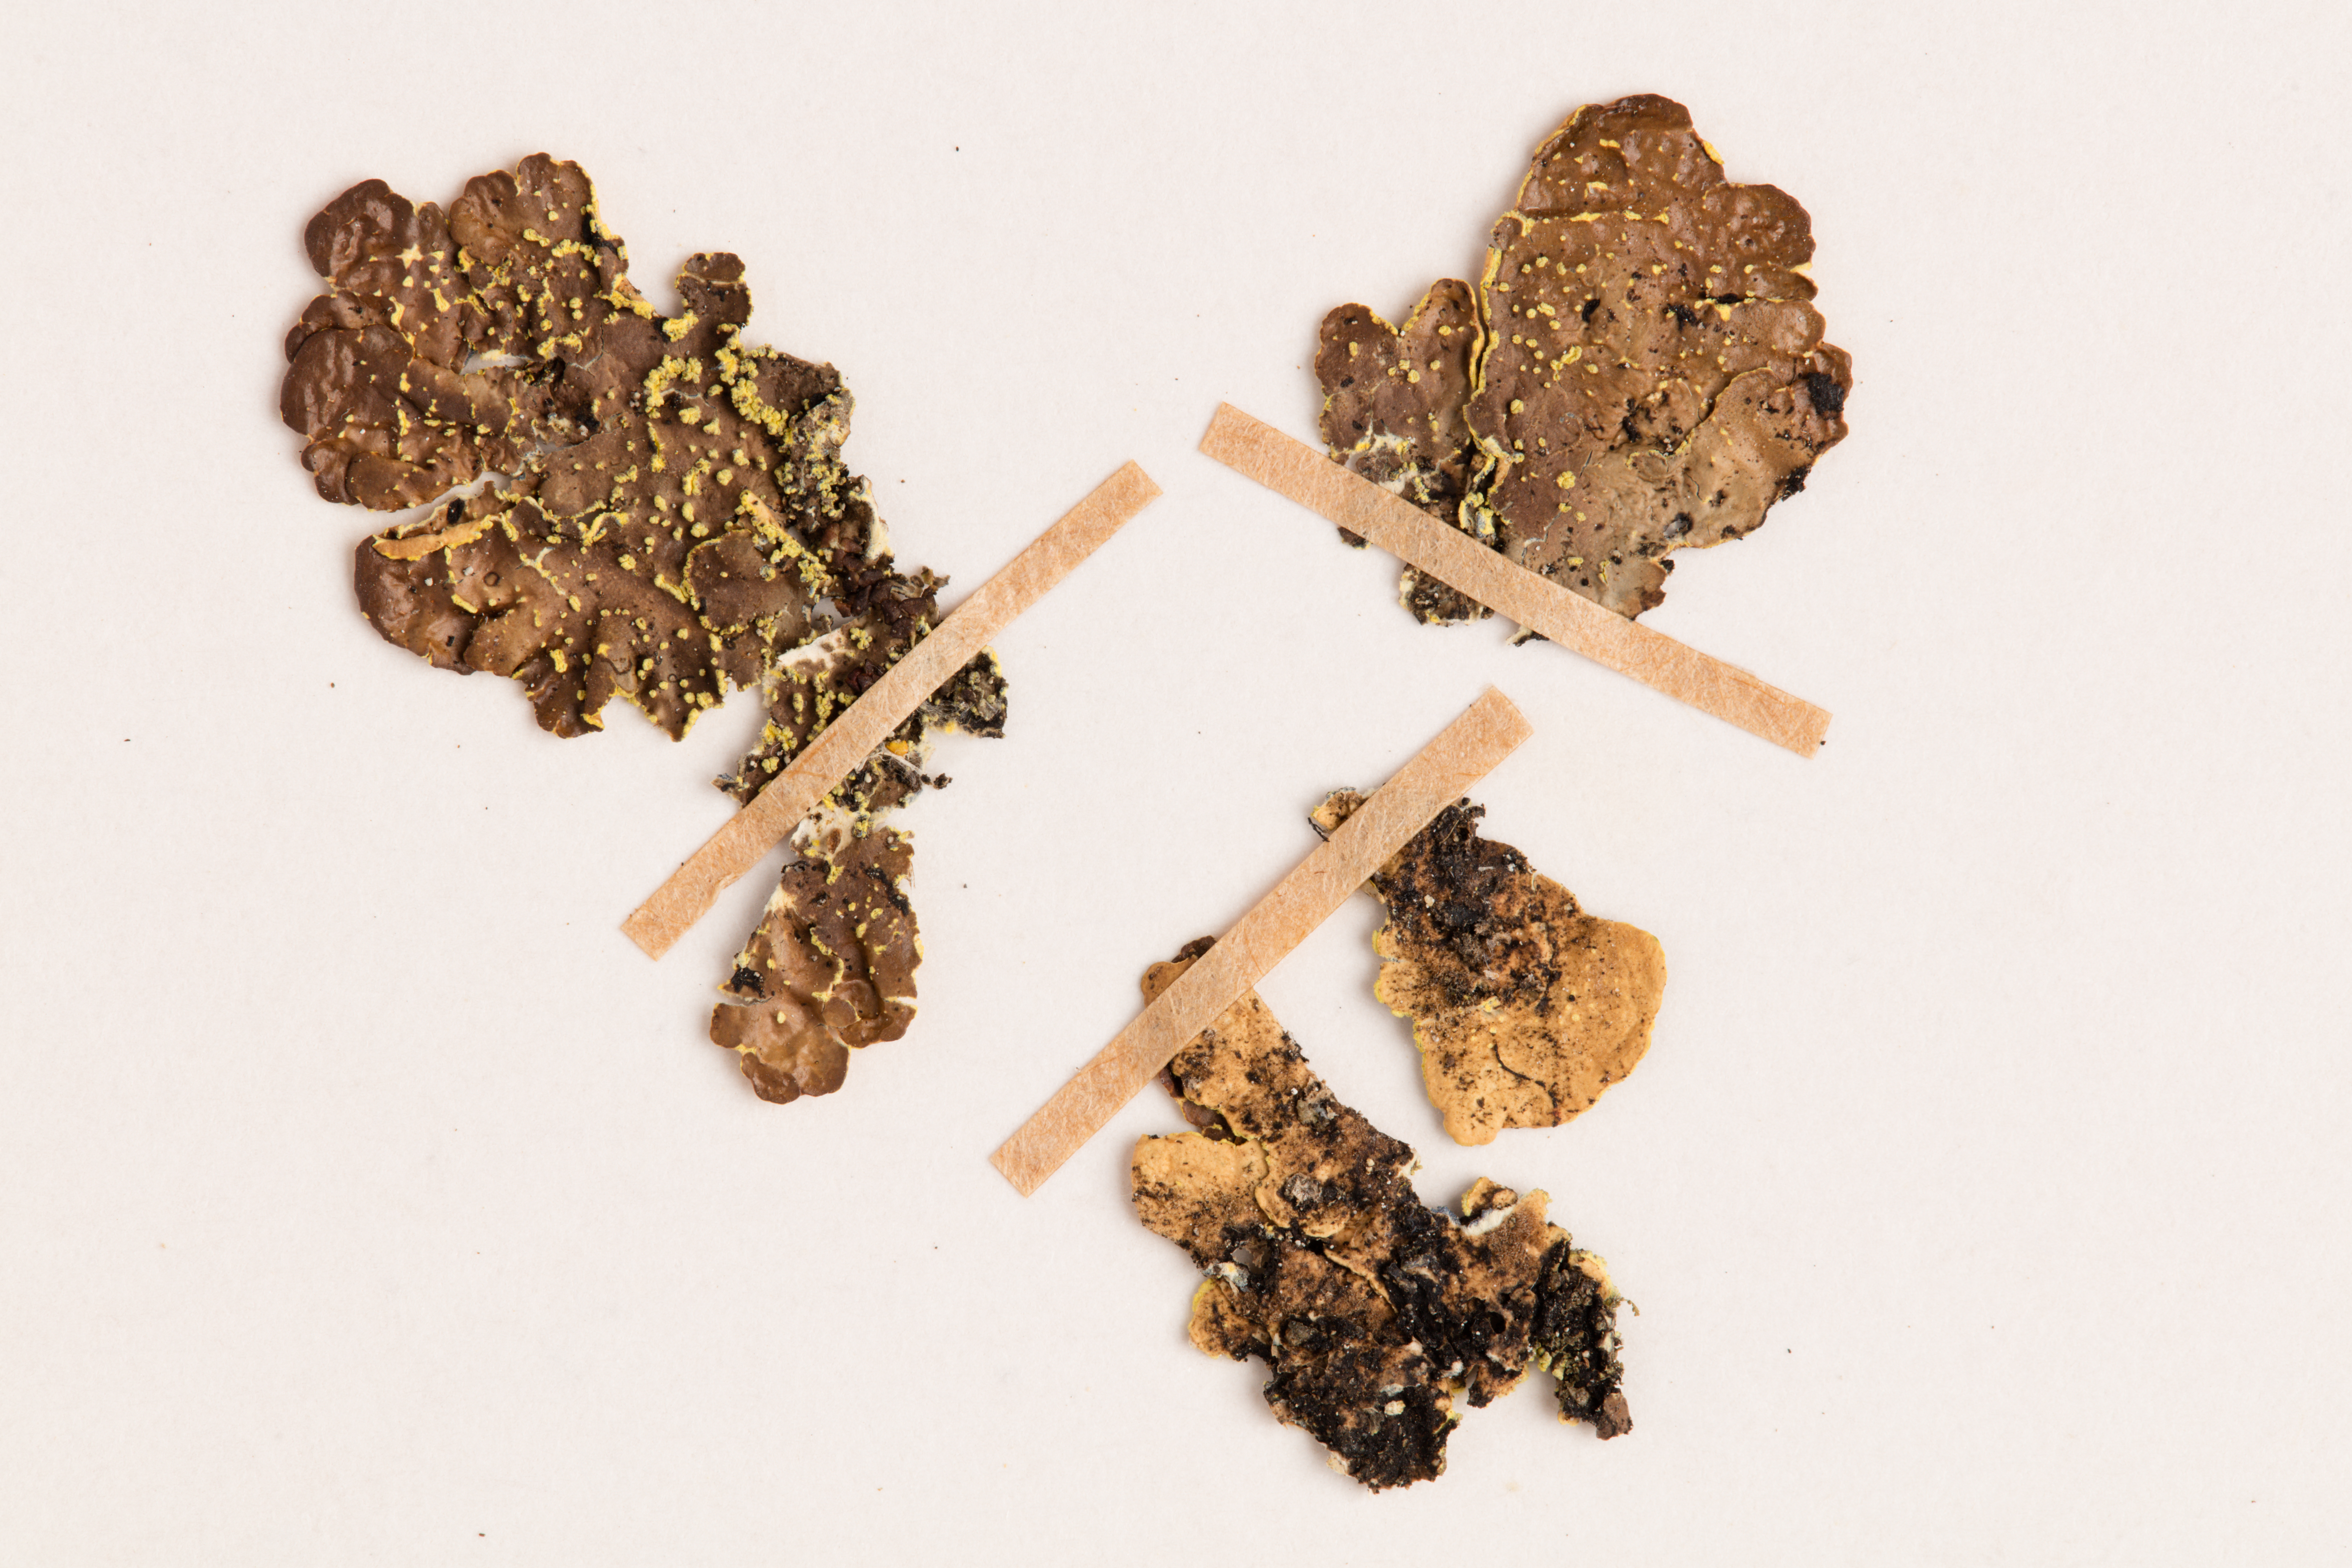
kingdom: Fungi
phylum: Ascomycota
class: Lecanoromycetes
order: Peltigerales
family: Lobariaceae
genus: Pseudocyphellaria
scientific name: Pseudocyphellaria crocata
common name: Golden specklebelly
